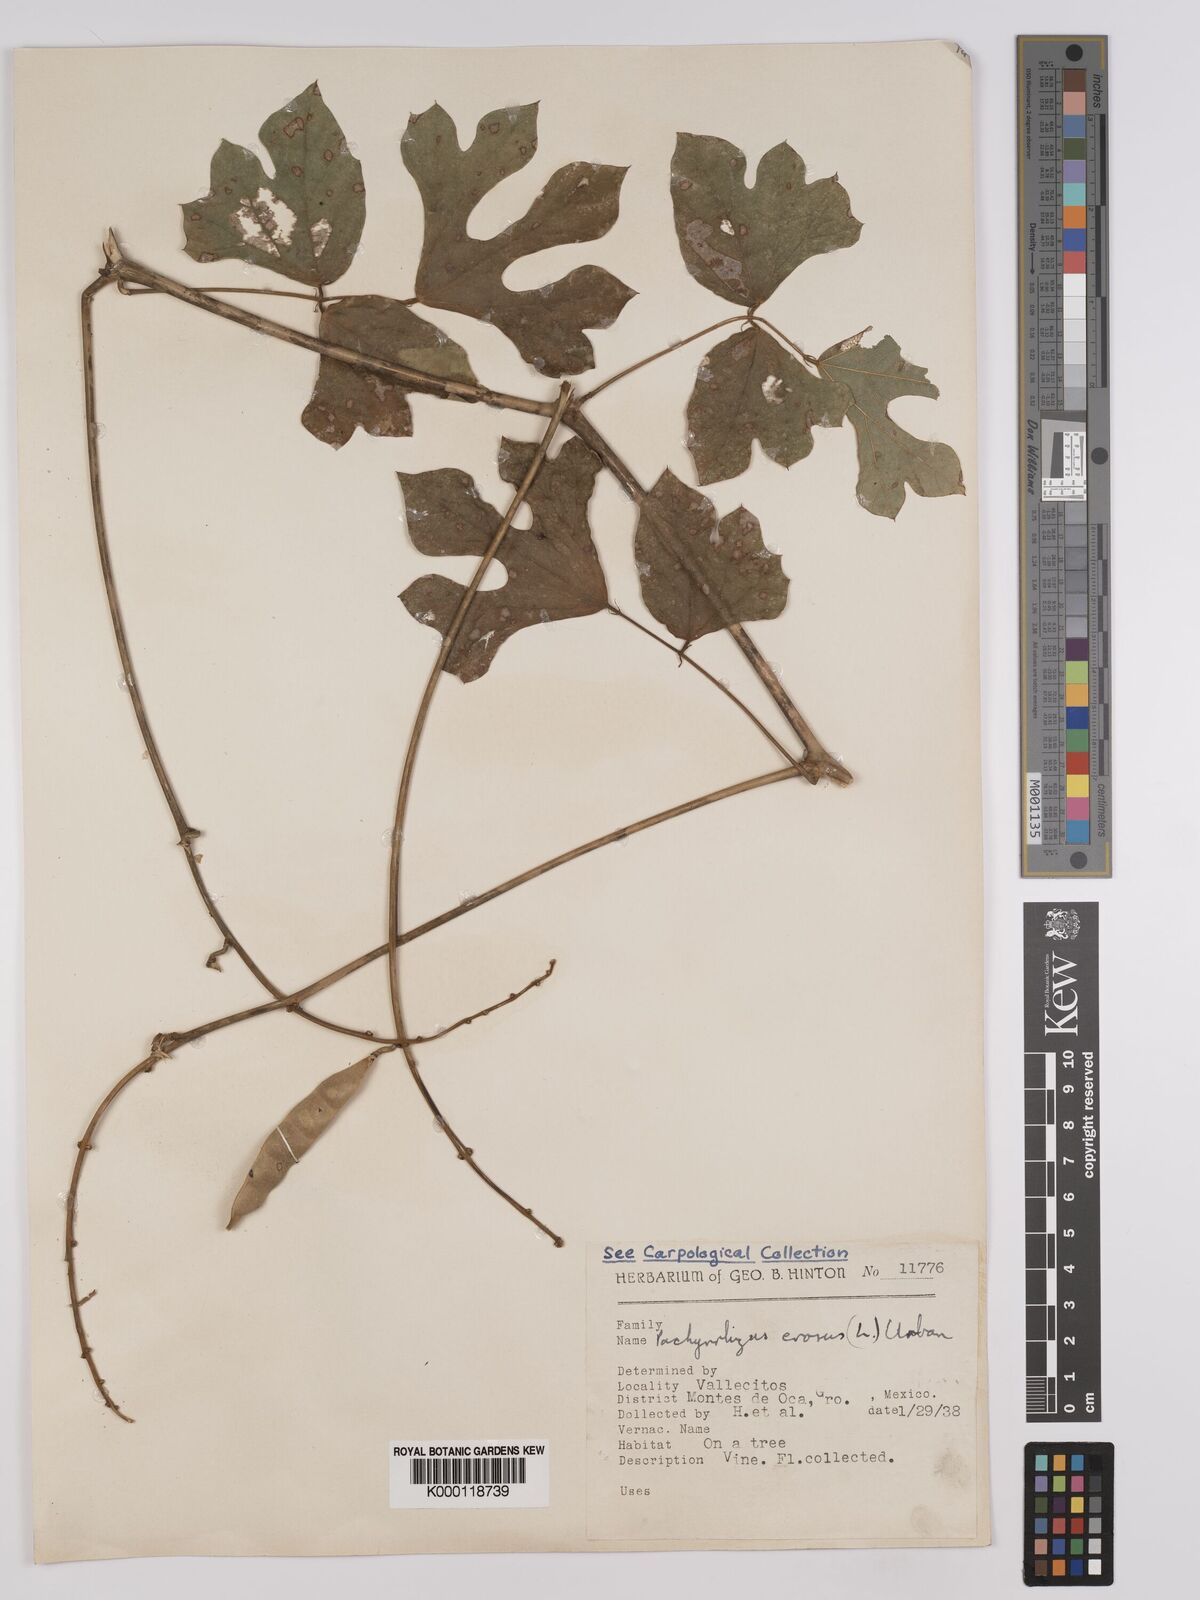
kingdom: Plantae
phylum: Tracheophyta
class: Magnoliopsida
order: Fabales
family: Fabaceae
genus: Pachyrhizus
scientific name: Pachyrhizus erosus
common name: Yam bean
